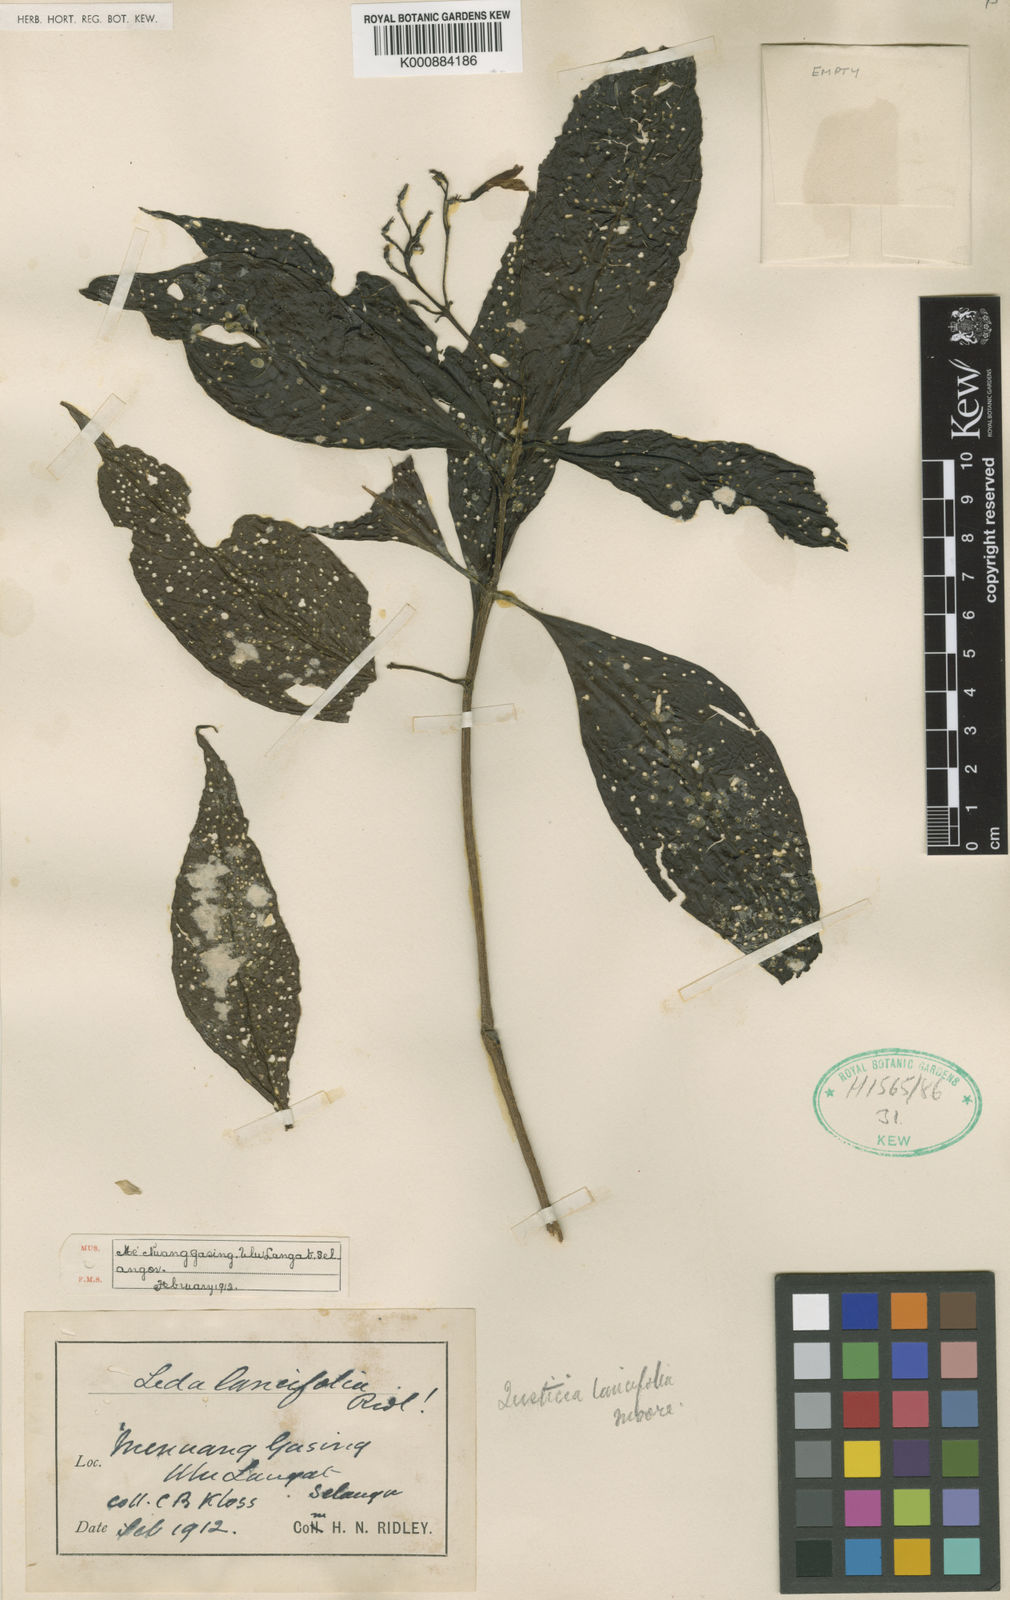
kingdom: Plantae
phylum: Tracheophyta
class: Magnoliopsida
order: Lamiales
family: Acanthaceae
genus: Isoglossa
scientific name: Isoglossa Leda lancifolia
